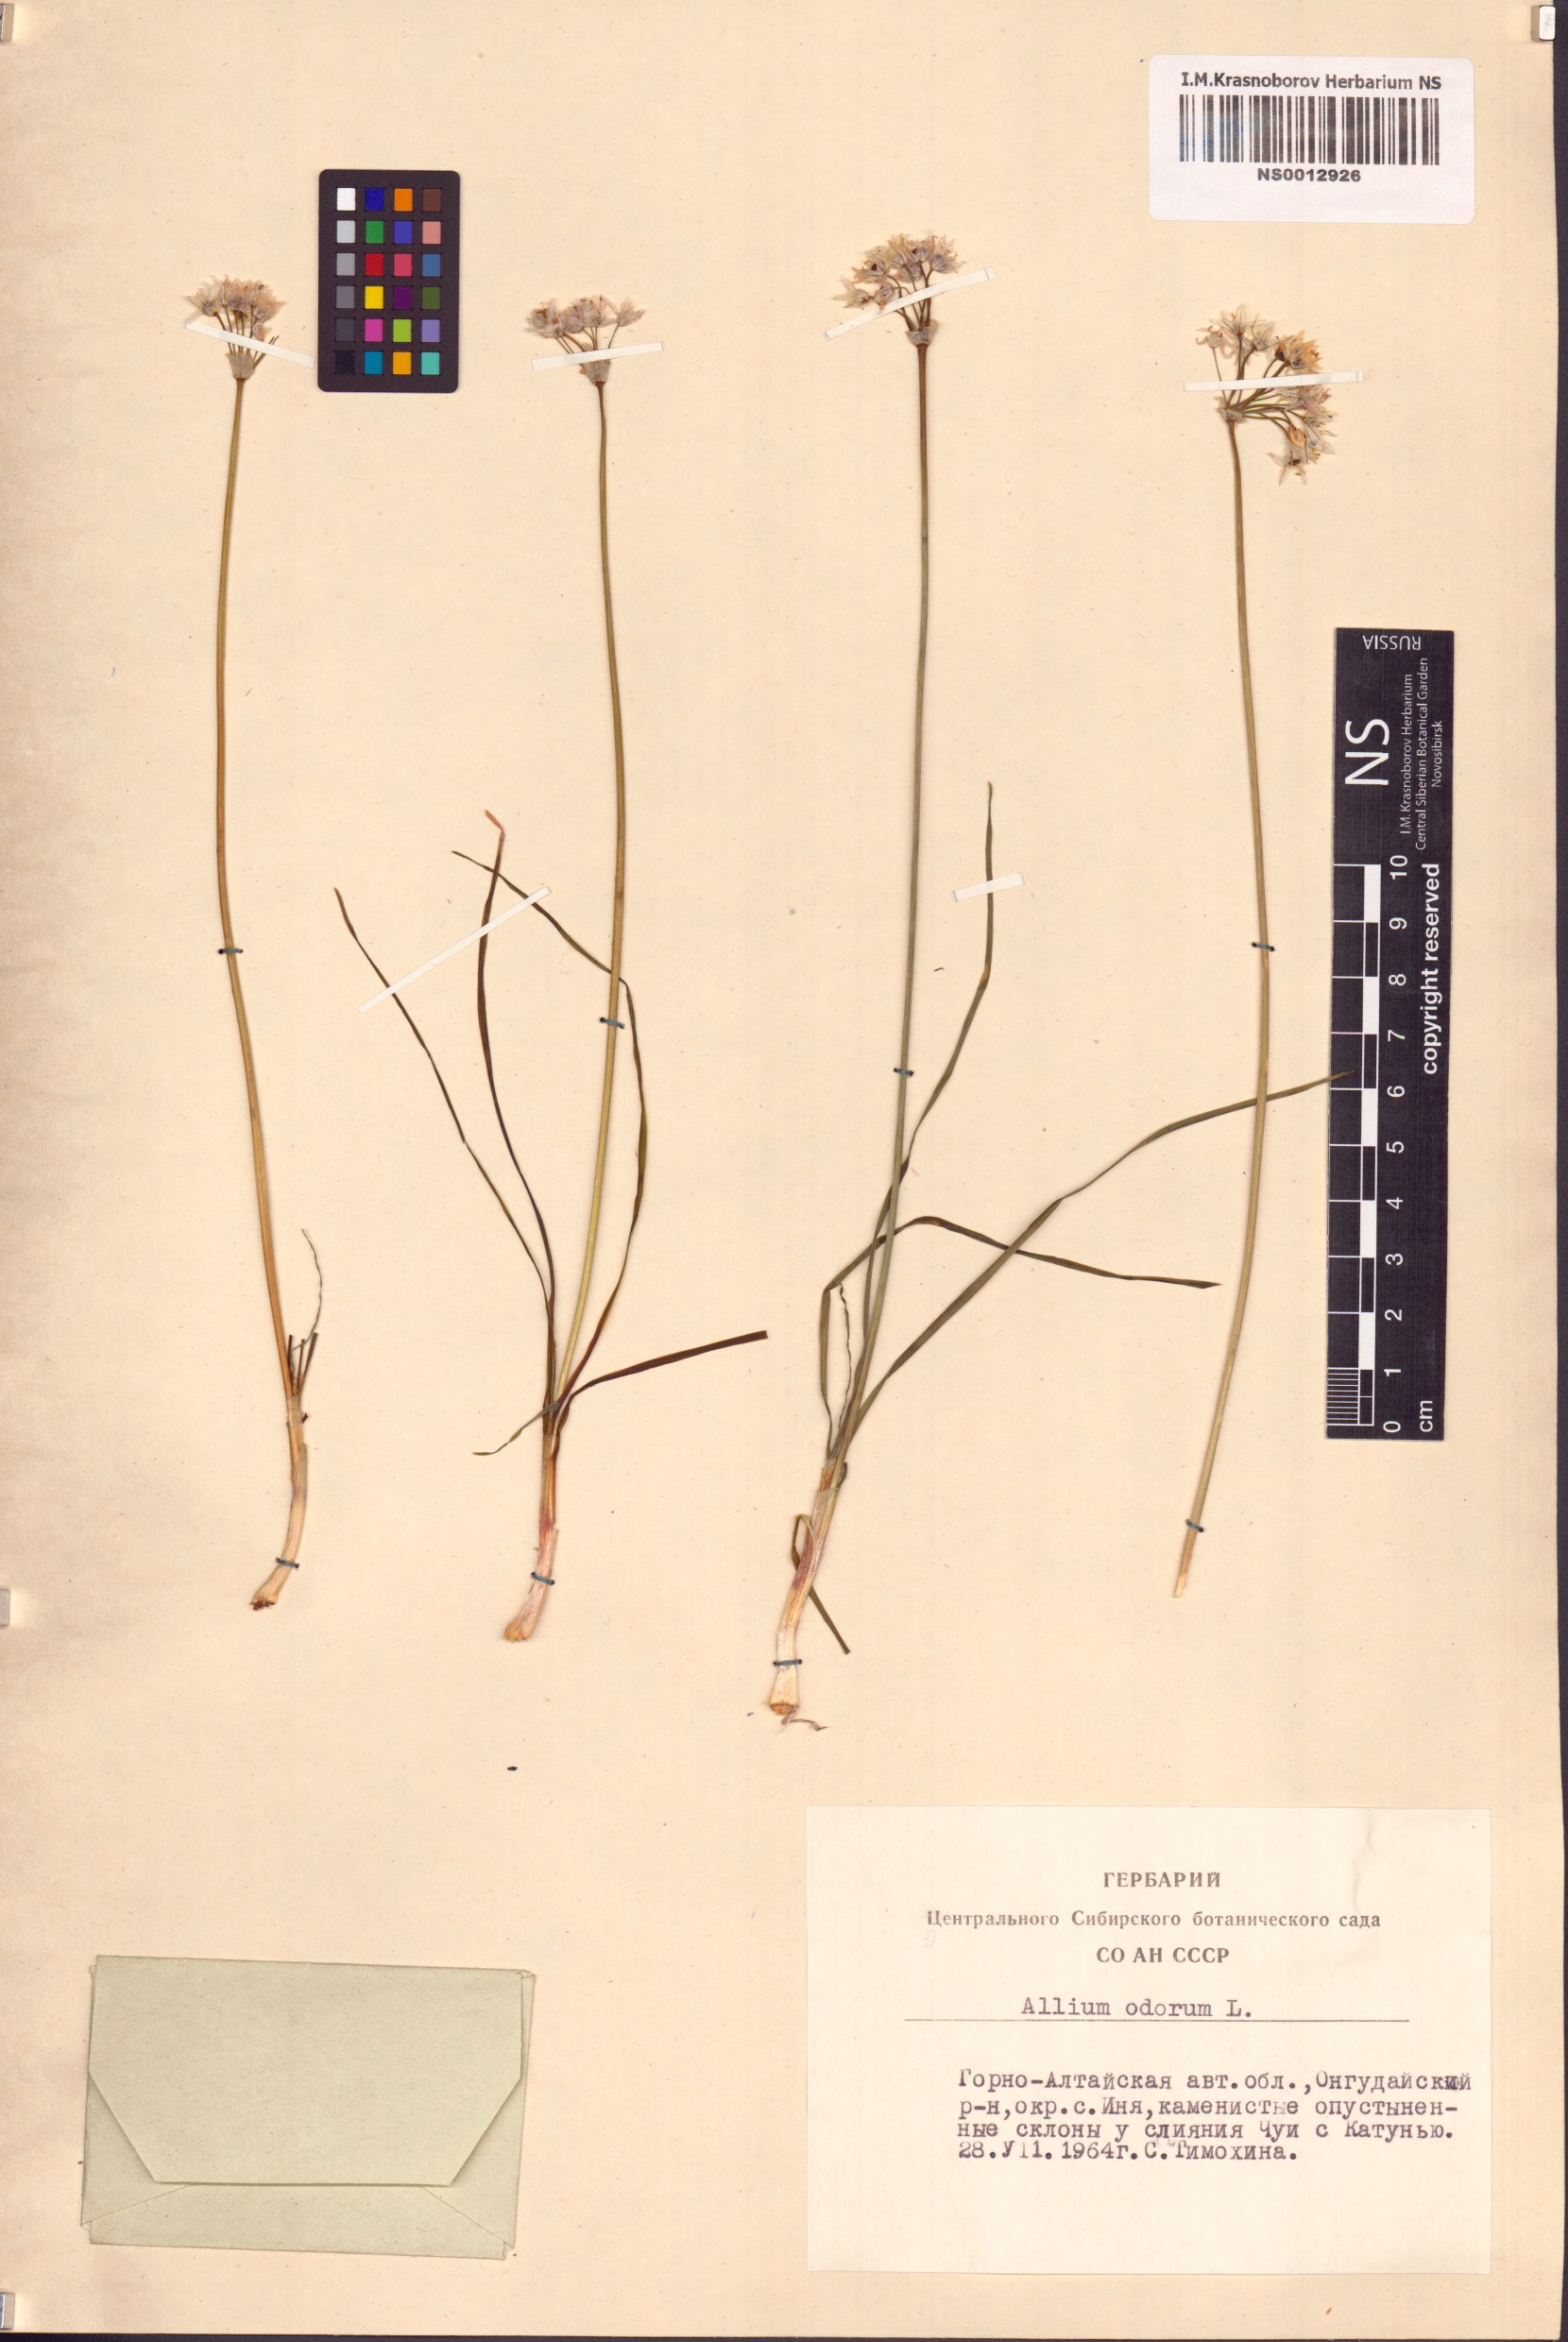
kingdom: Plantae
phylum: Tracheophyta
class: Liliopsida
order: Asparagales
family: Amaryllidaceae
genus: Allium
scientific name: Allium ramosum
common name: Fragrant garlic
